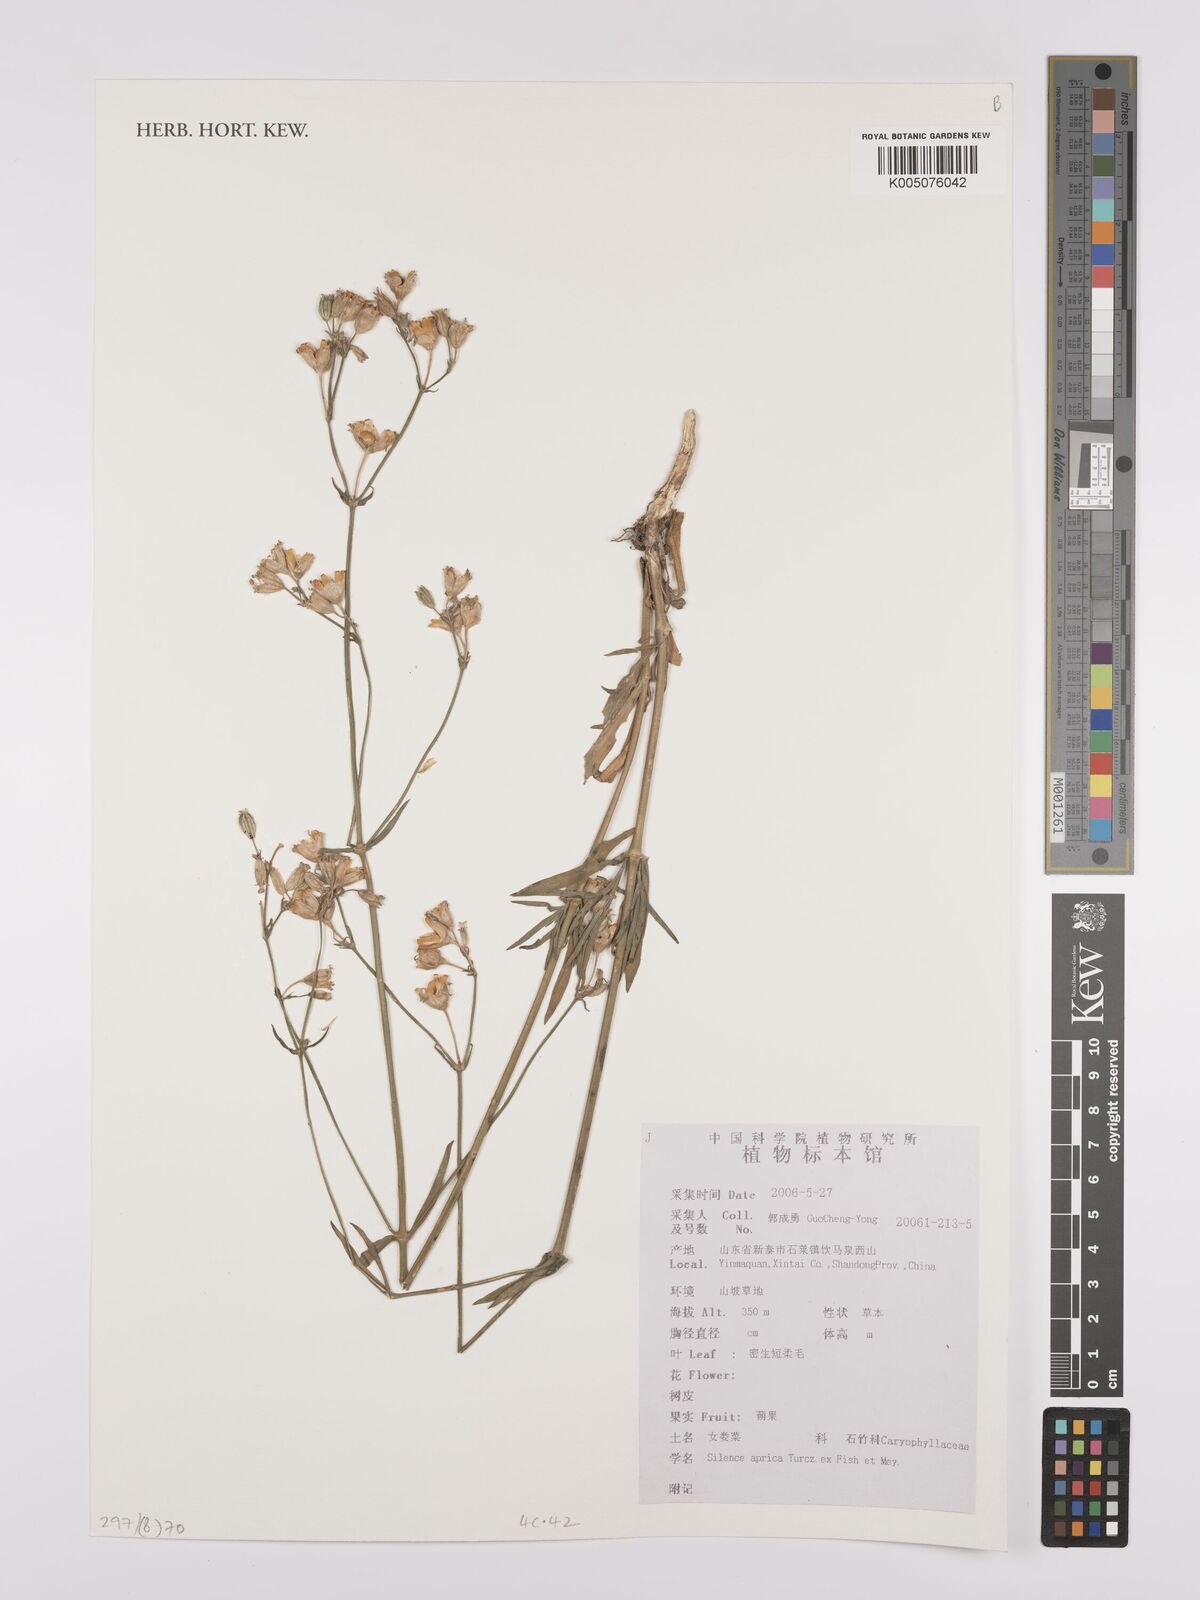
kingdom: Plantae
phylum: Tracheophyta
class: Magnoliopsida
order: Caryophyllales
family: Caryophyllaceae
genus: Silene
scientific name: Silene aprica
